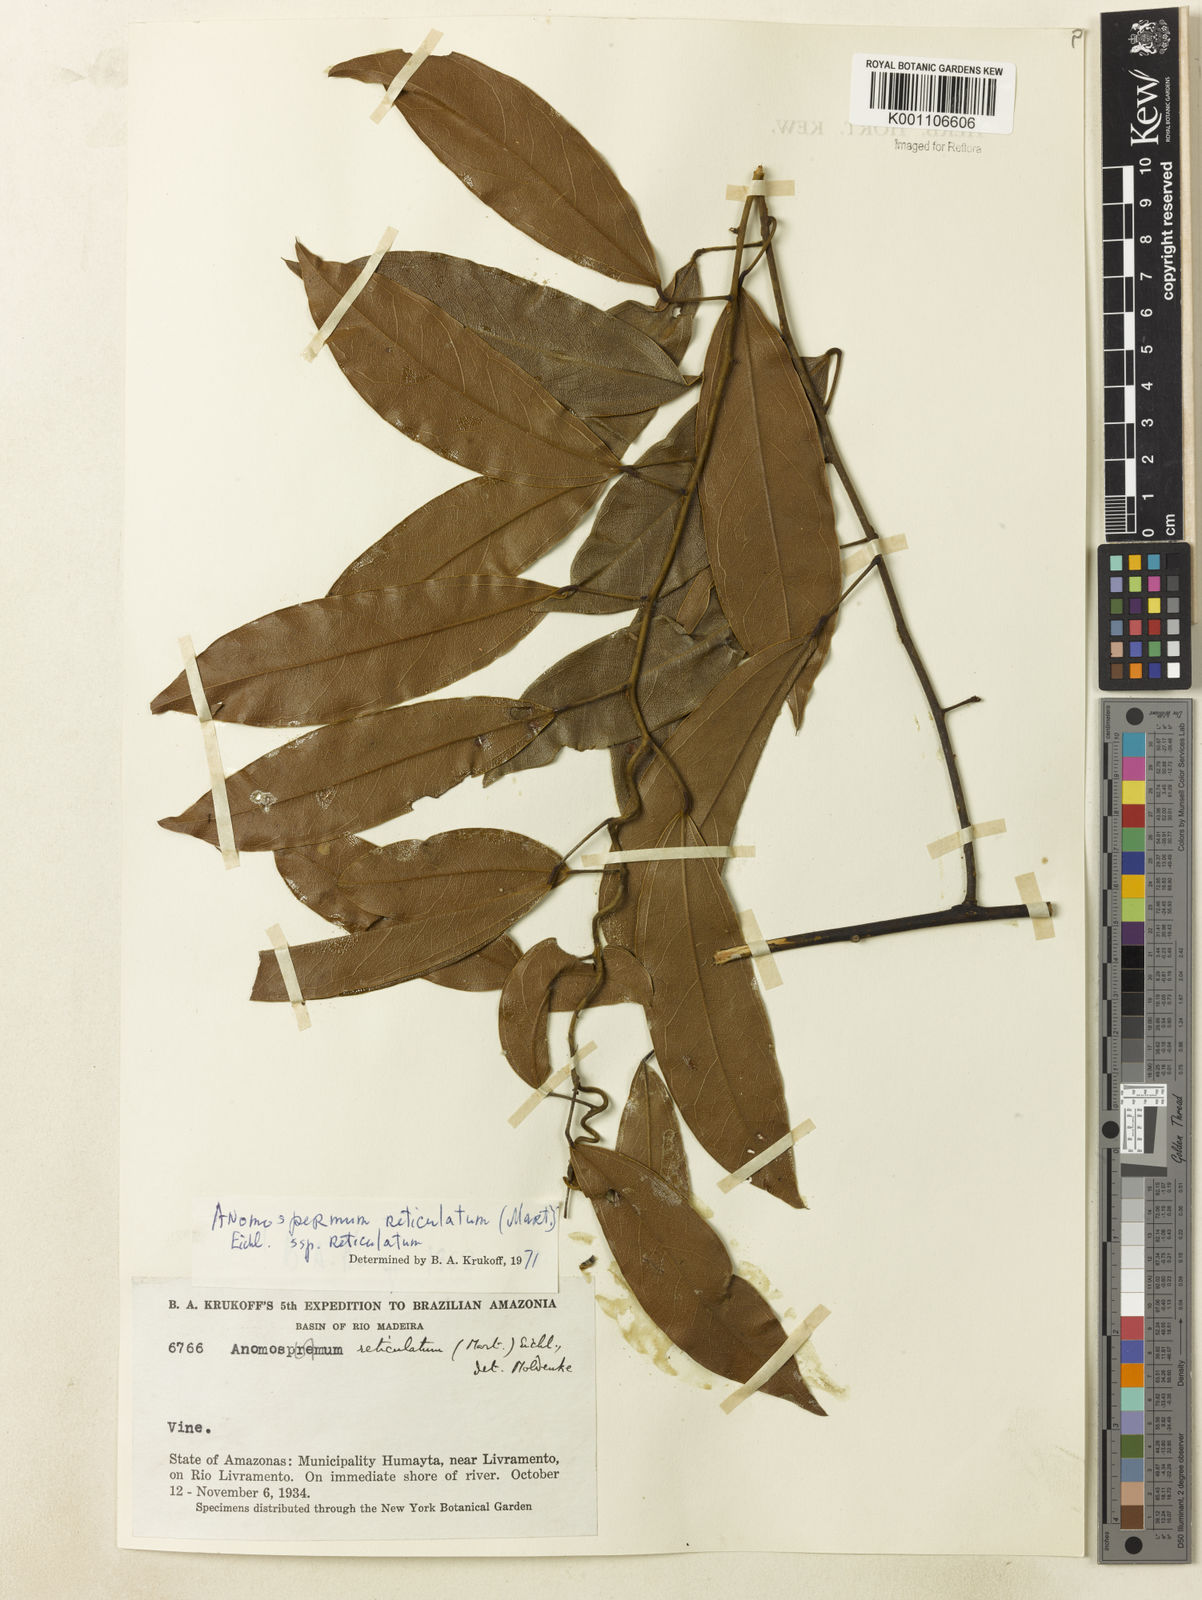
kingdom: Plantae
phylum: Tracheophyta
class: Magnoliopsida
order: Ranunculales
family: Menispermaceae
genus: Anomospermum
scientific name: Anomospermum reticulatum
